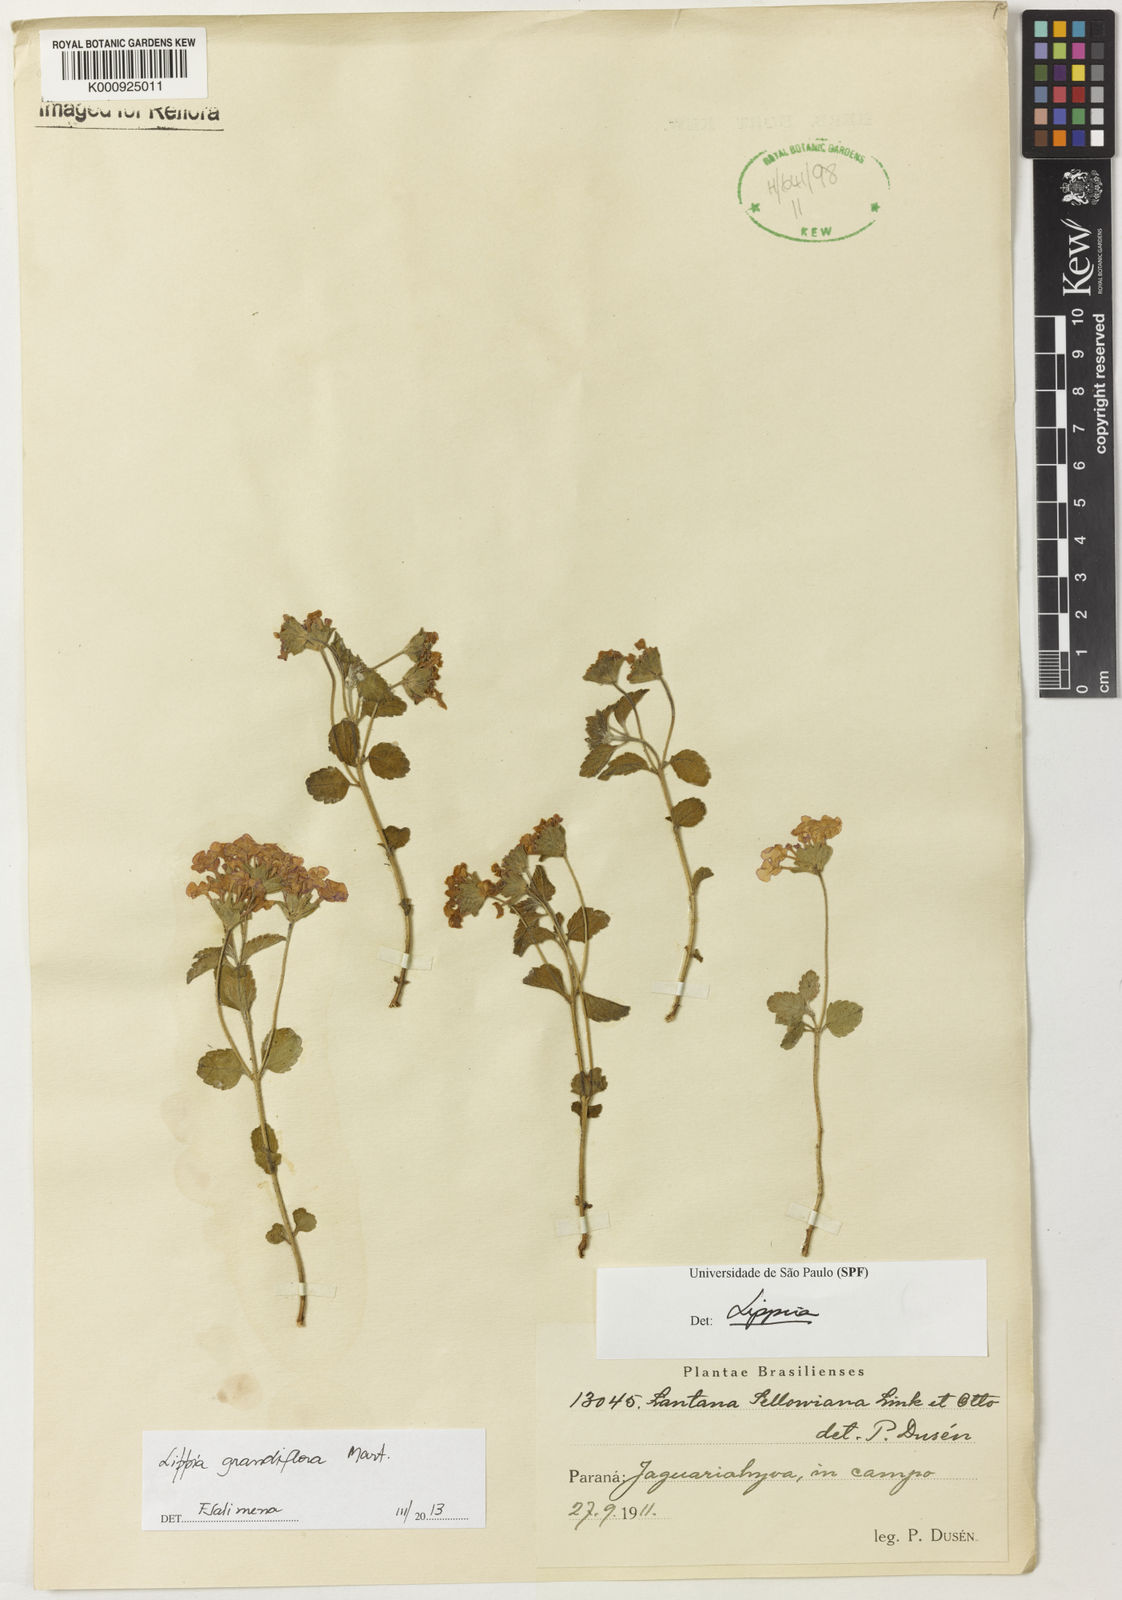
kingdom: Plantae
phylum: Tracheophyta
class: Magnoliopsida
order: Lamiales
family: Verbenaceae
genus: Lippia
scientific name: Lippia grandiflora
